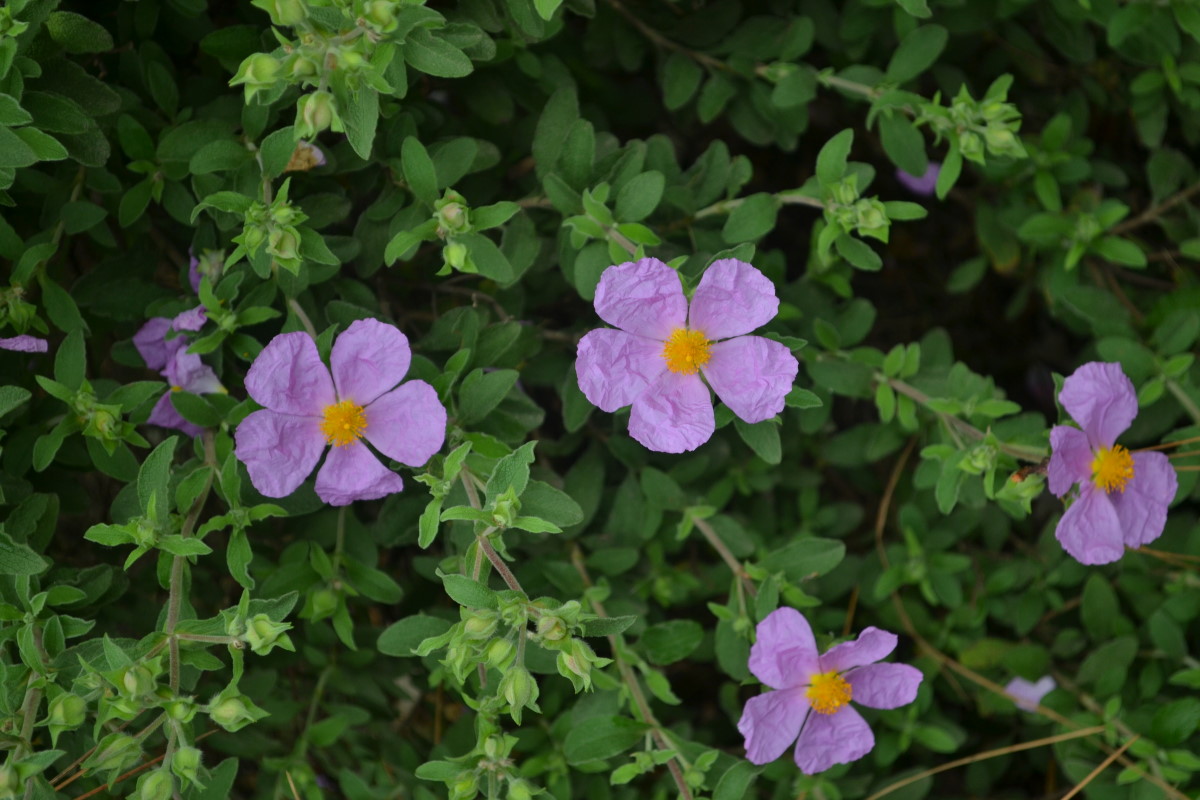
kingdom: Plantae
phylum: Tracheophyta
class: Magnoliopsida
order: Malvales
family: Cistaceae
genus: Cistus
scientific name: Cistus creticus
